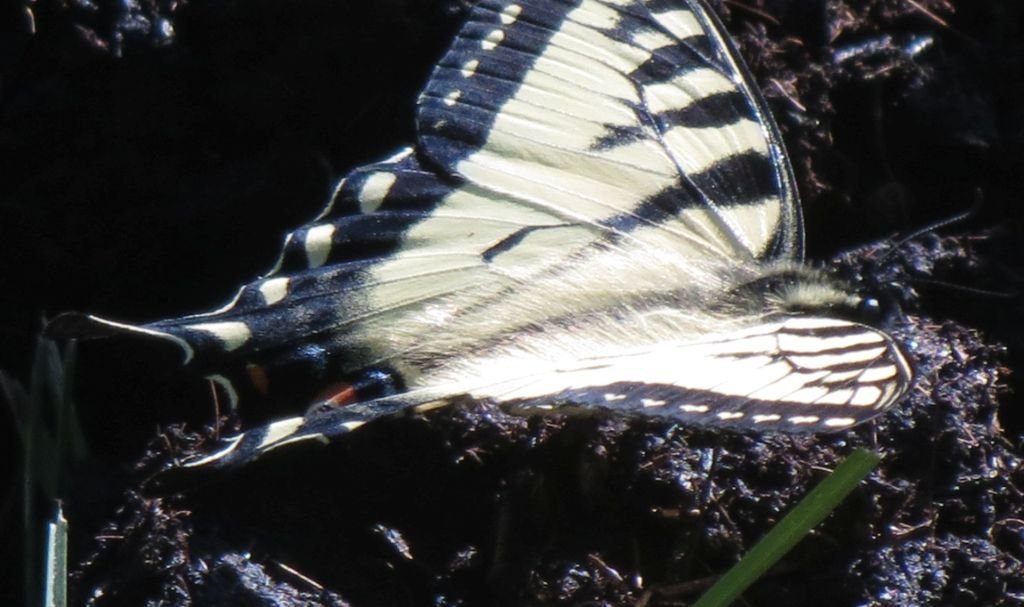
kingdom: Animalia
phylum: Arthropoda
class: Insecta
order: Lepidoptera
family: Papilionidae
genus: Pterourus
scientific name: Pterourus canadensis
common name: Canadian Tiger Swallowtail
